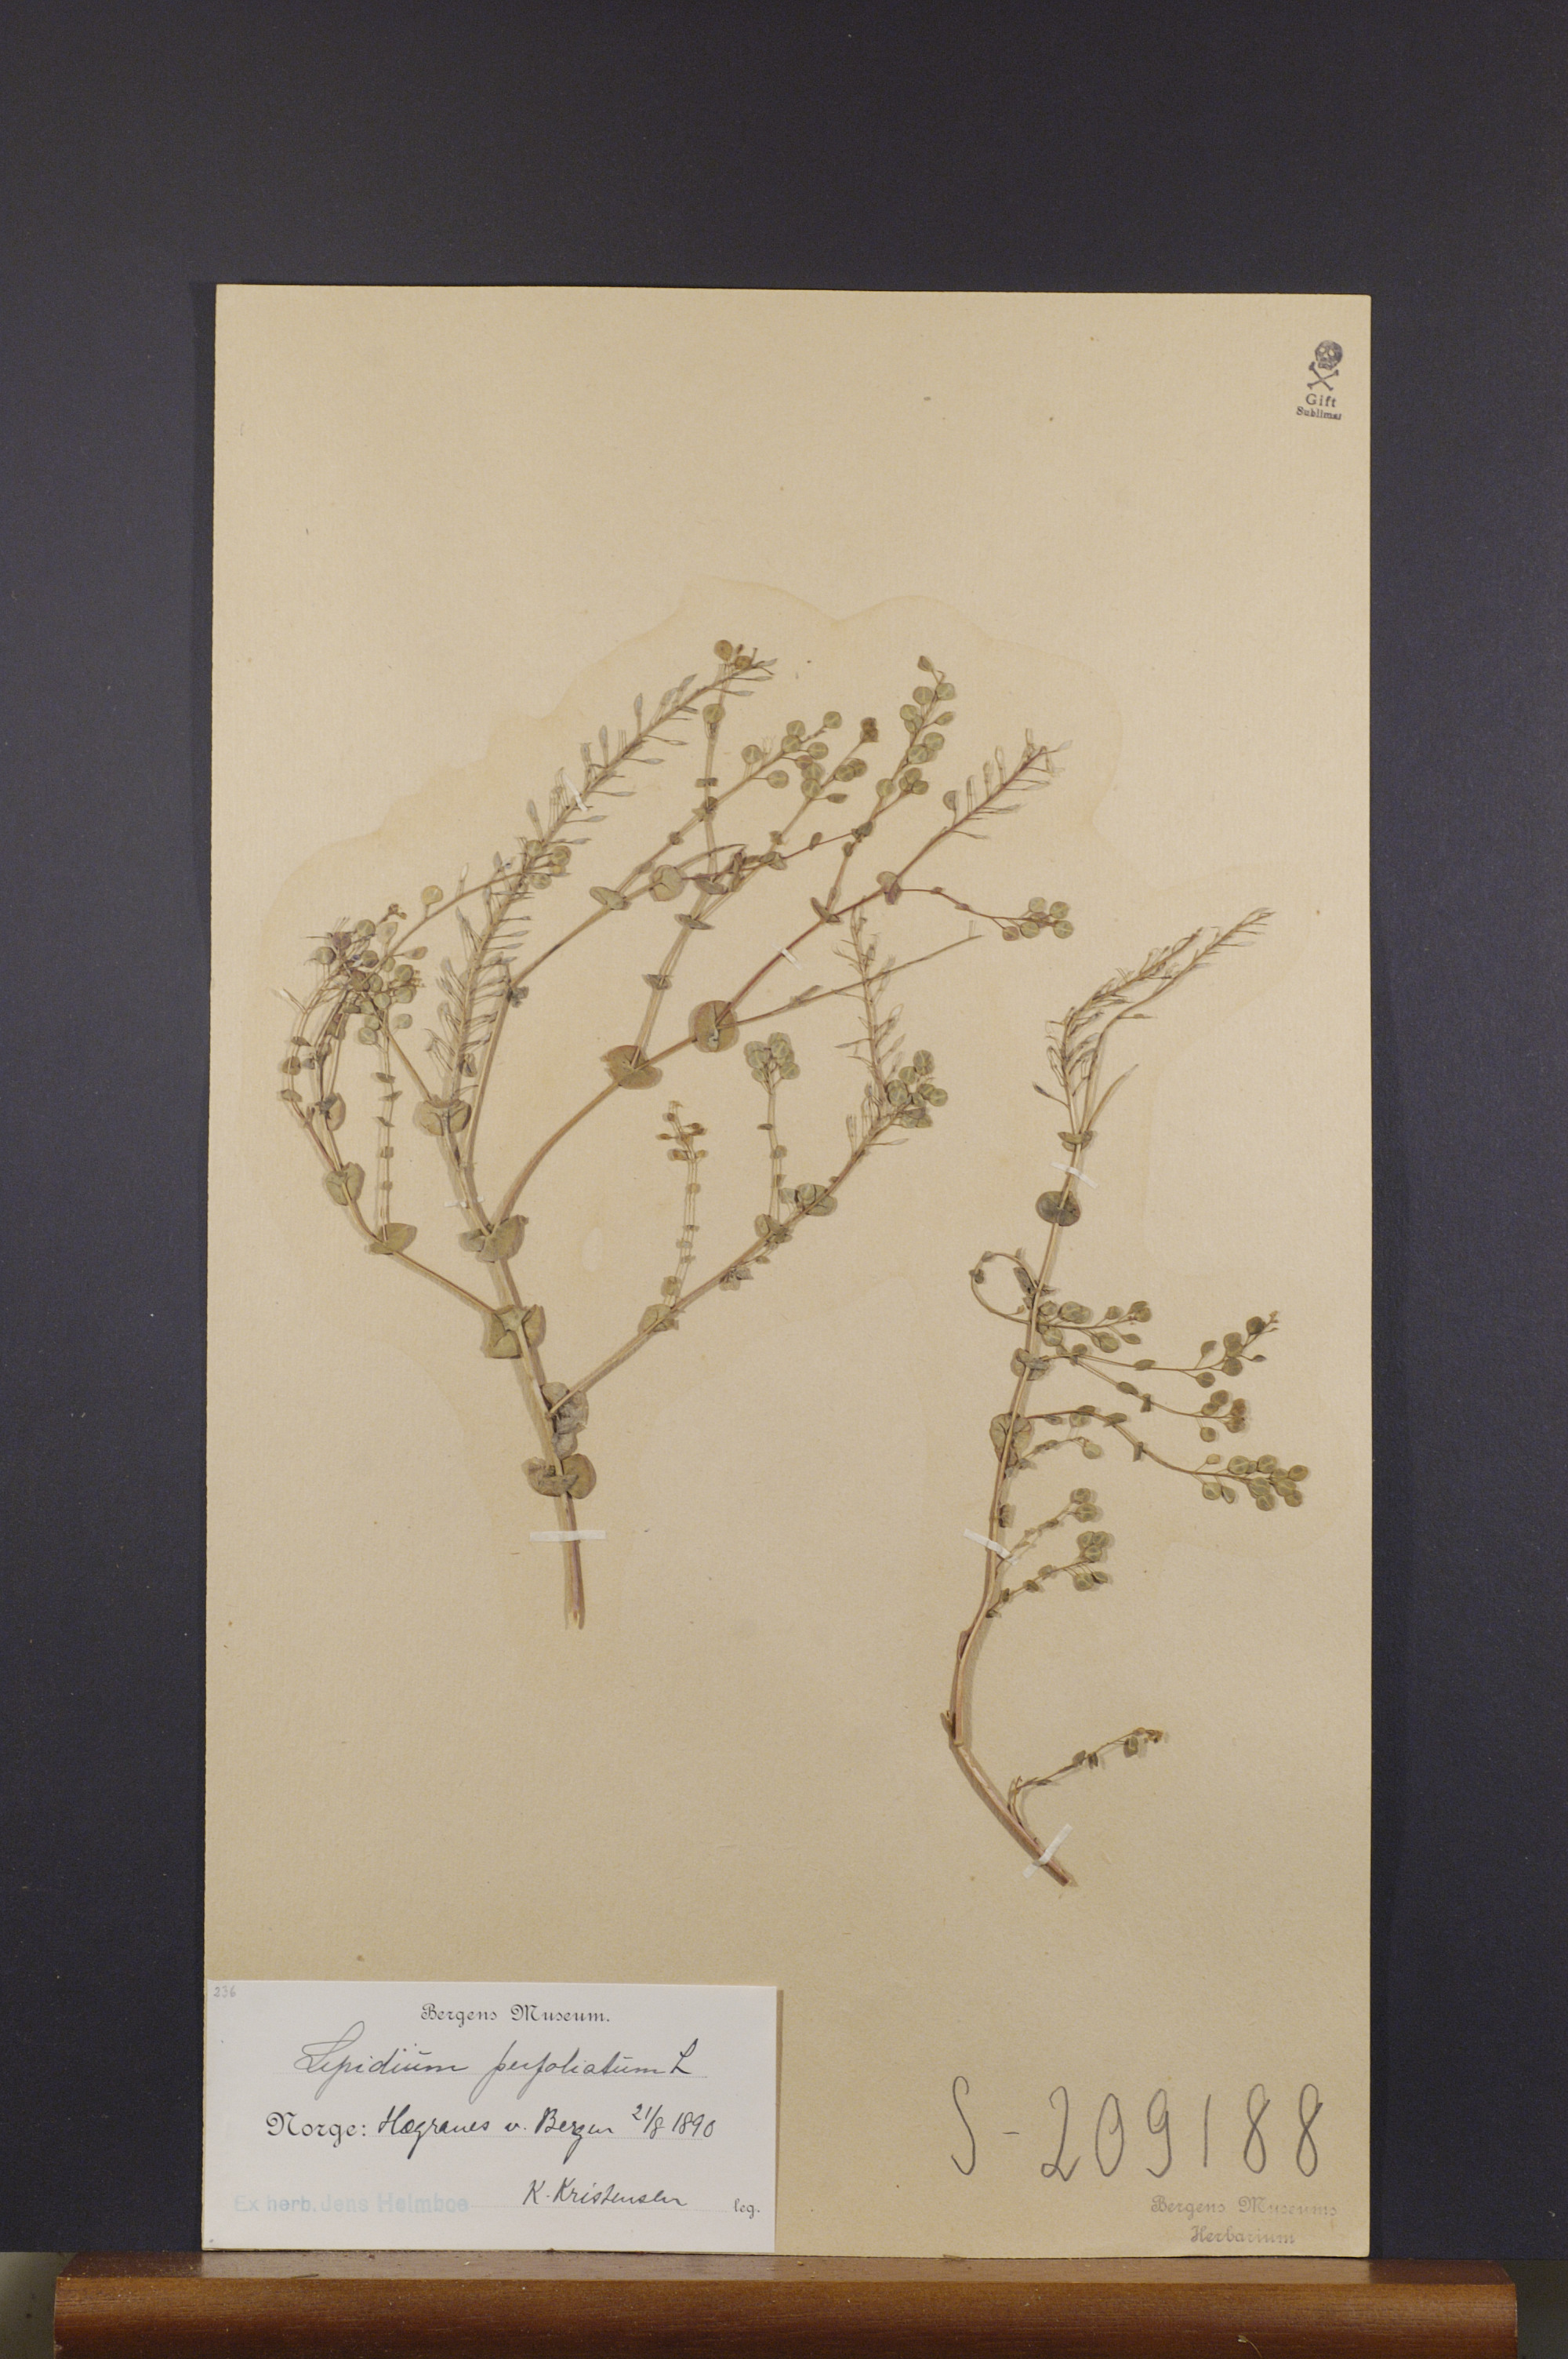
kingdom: Plantae
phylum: Tracheophyta
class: Magnoliopsida
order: Brassicales
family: Brassicaceae
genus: Lepidium
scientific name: Lepidium perfoliatum
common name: Perfoliate pepperwort
